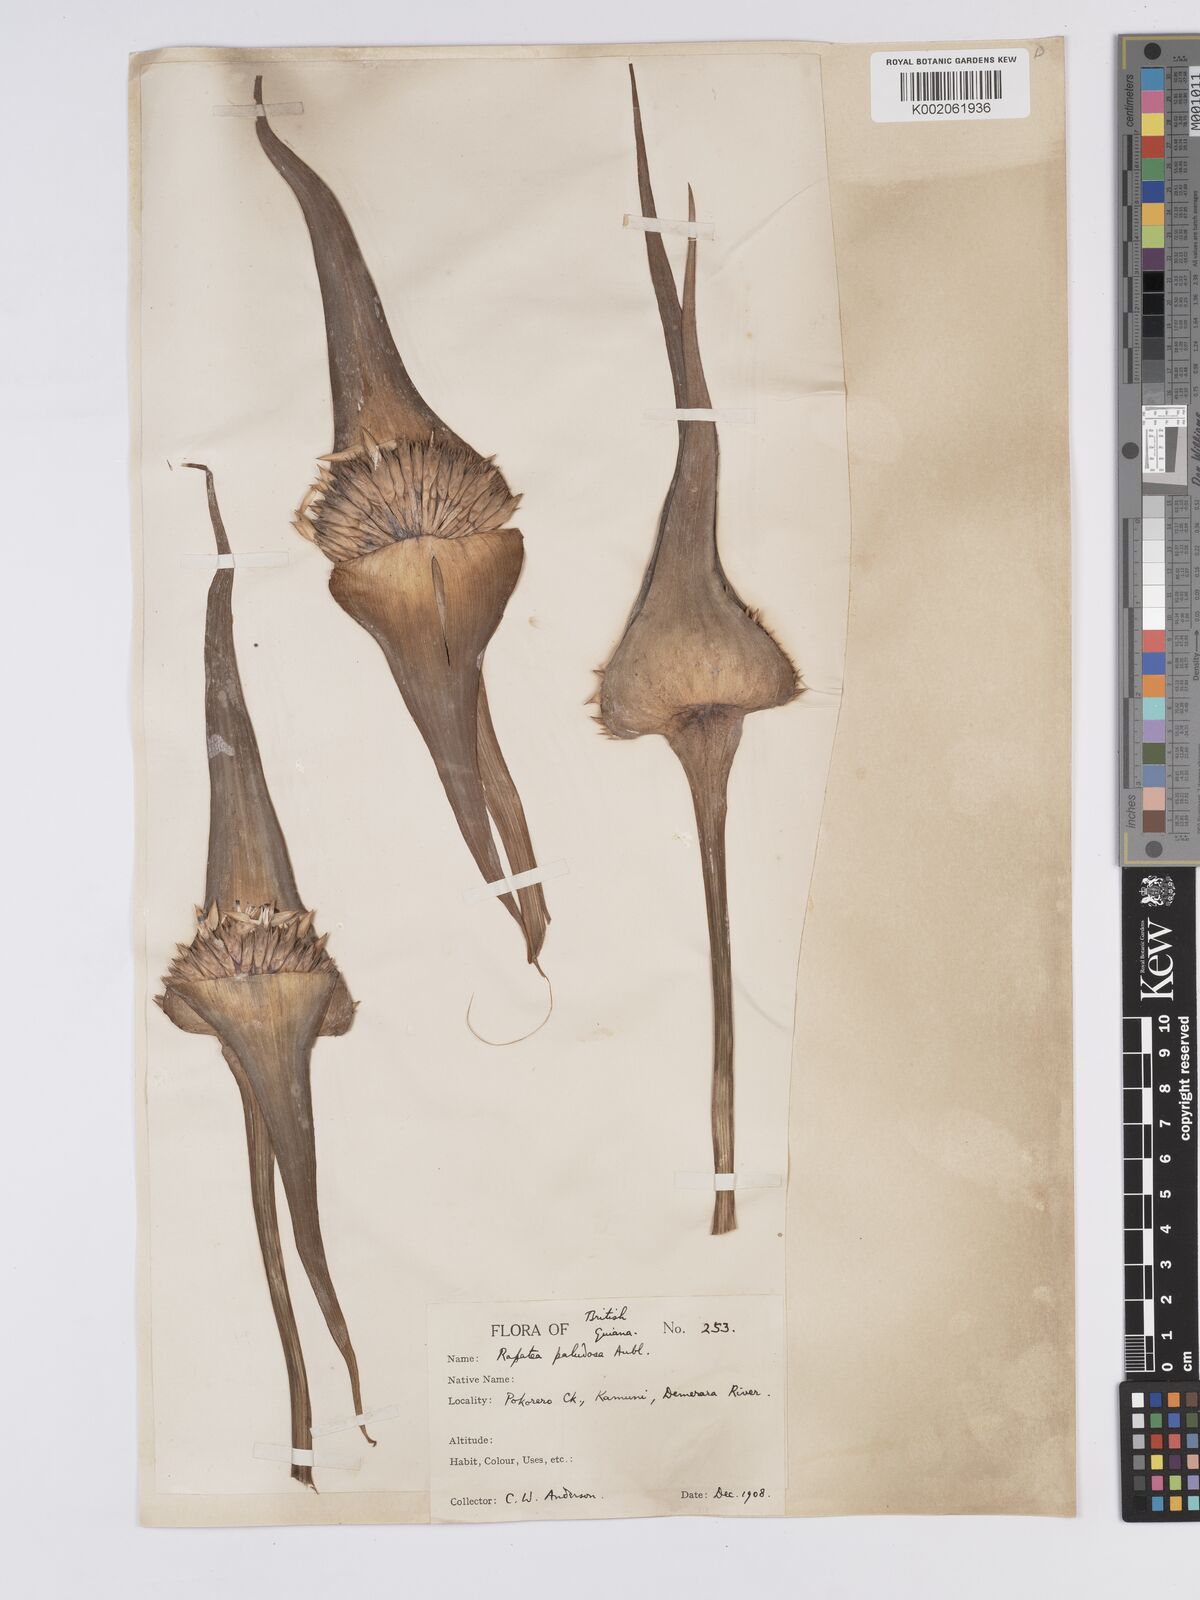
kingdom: Plantae
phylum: Tracheophyta
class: Liliopsida
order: Poales
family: Rapateaceae
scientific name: Rapateaceae
